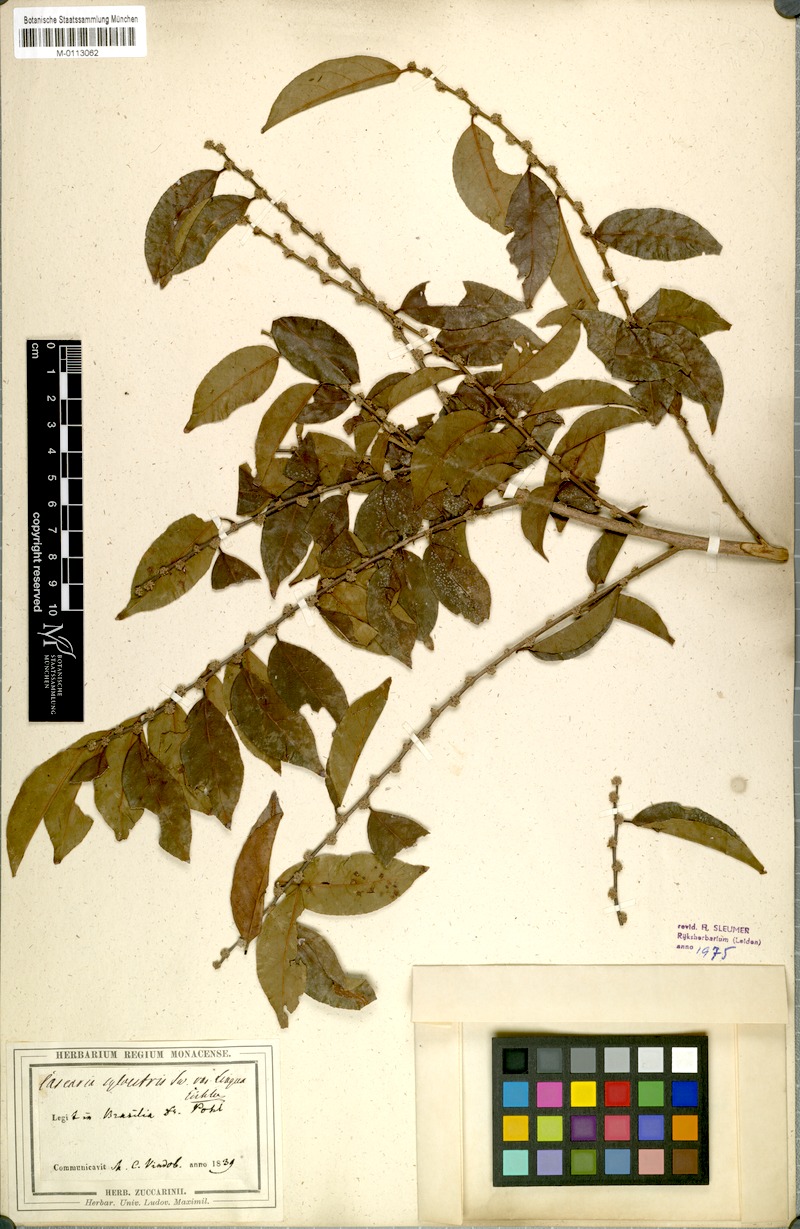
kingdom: Plantae
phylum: Tracheophyta
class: Magnoliopsida
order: Malpighiales
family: Salicaceae
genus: Casearia
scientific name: Casearia sylvestris
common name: Wild sage
